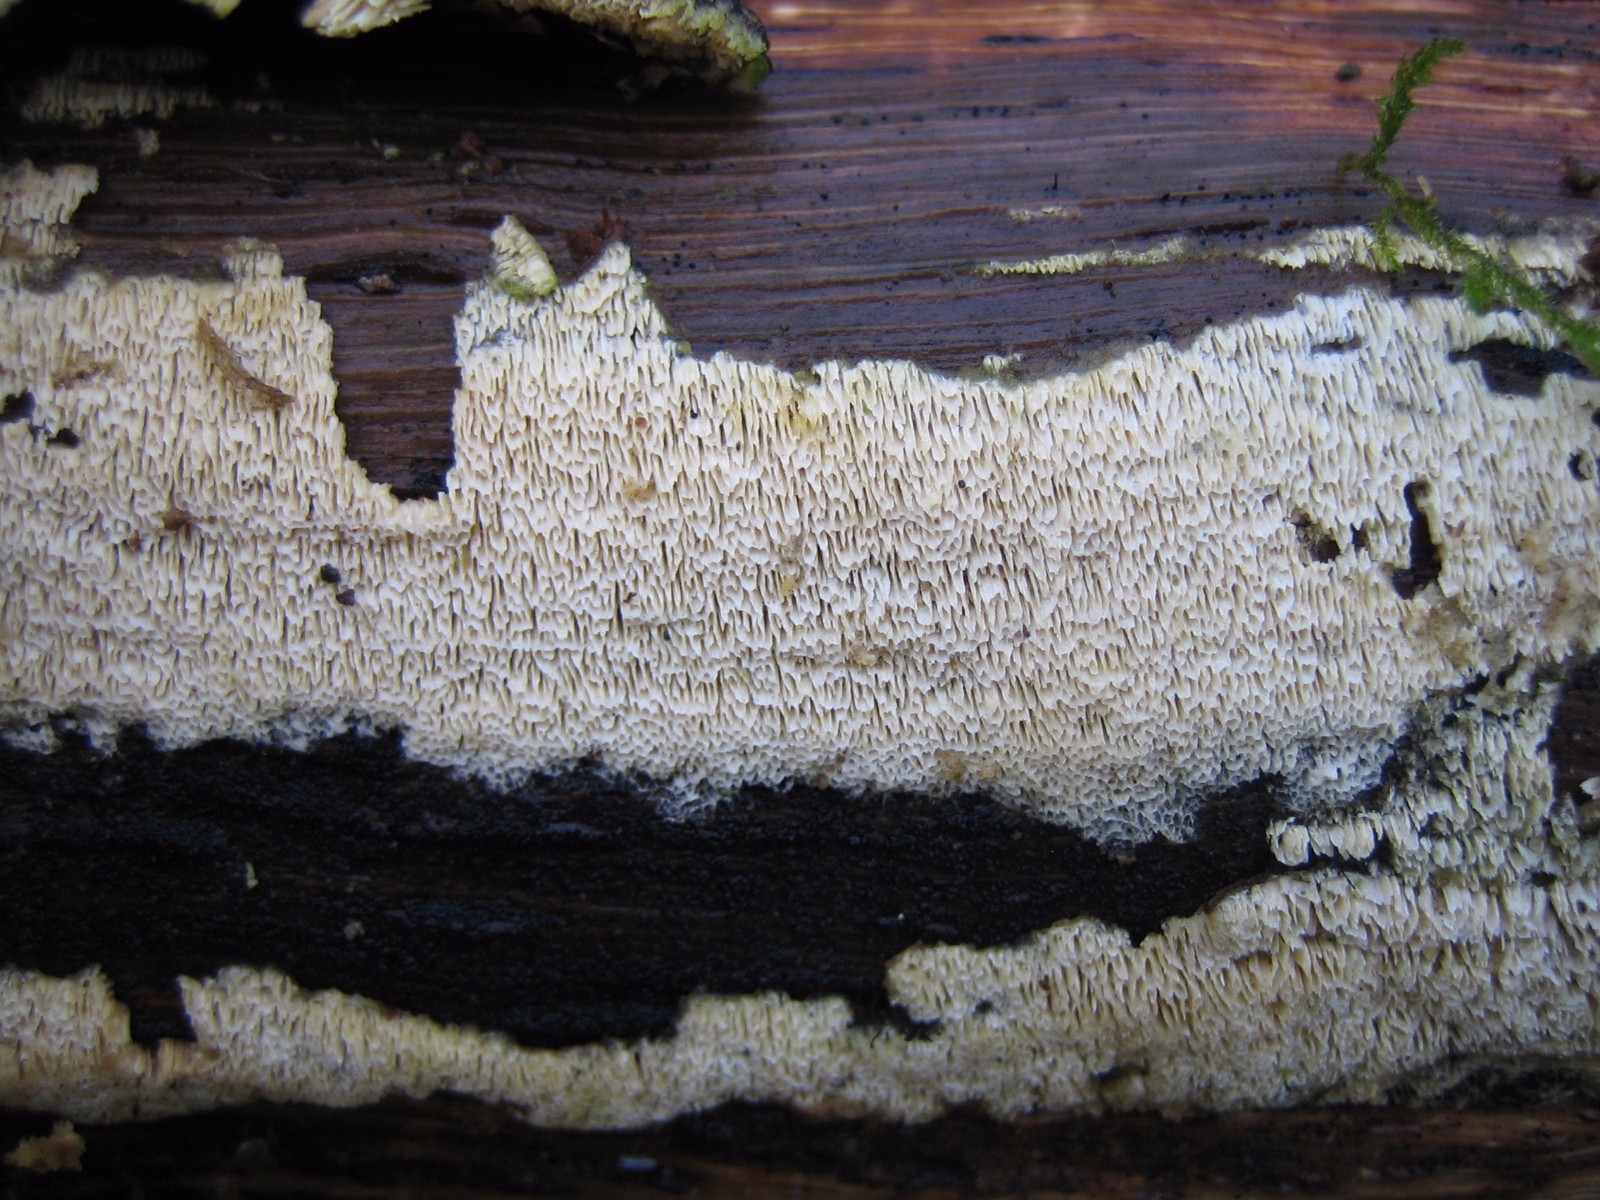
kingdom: Fungi
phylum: Basidiomycota
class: Agaricomycetes
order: Hymenochaetales
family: Schizoporaceae
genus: Xylodon
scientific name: Xylodon subtropicus
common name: labyrint-tandsvamp
